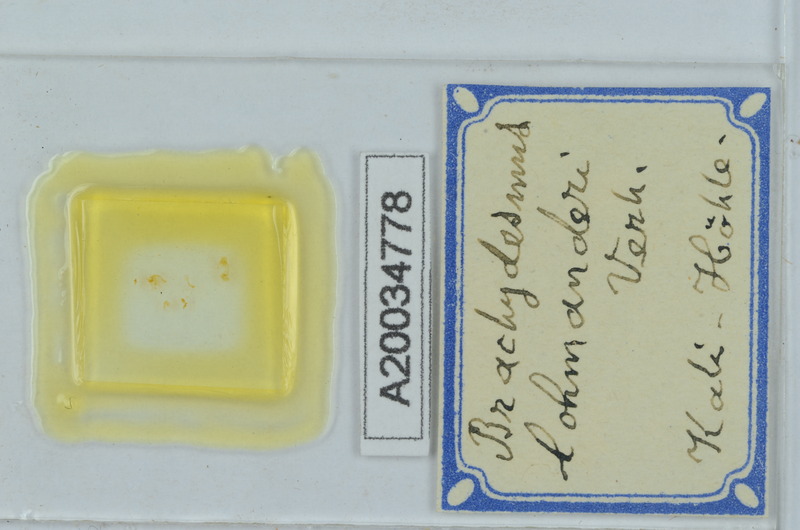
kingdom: Animalia
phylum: Arthropoda
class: Diplopoda
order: Polydesmida
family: Polydesmidae
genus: Brachydesmus
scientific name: Brachydesmus
